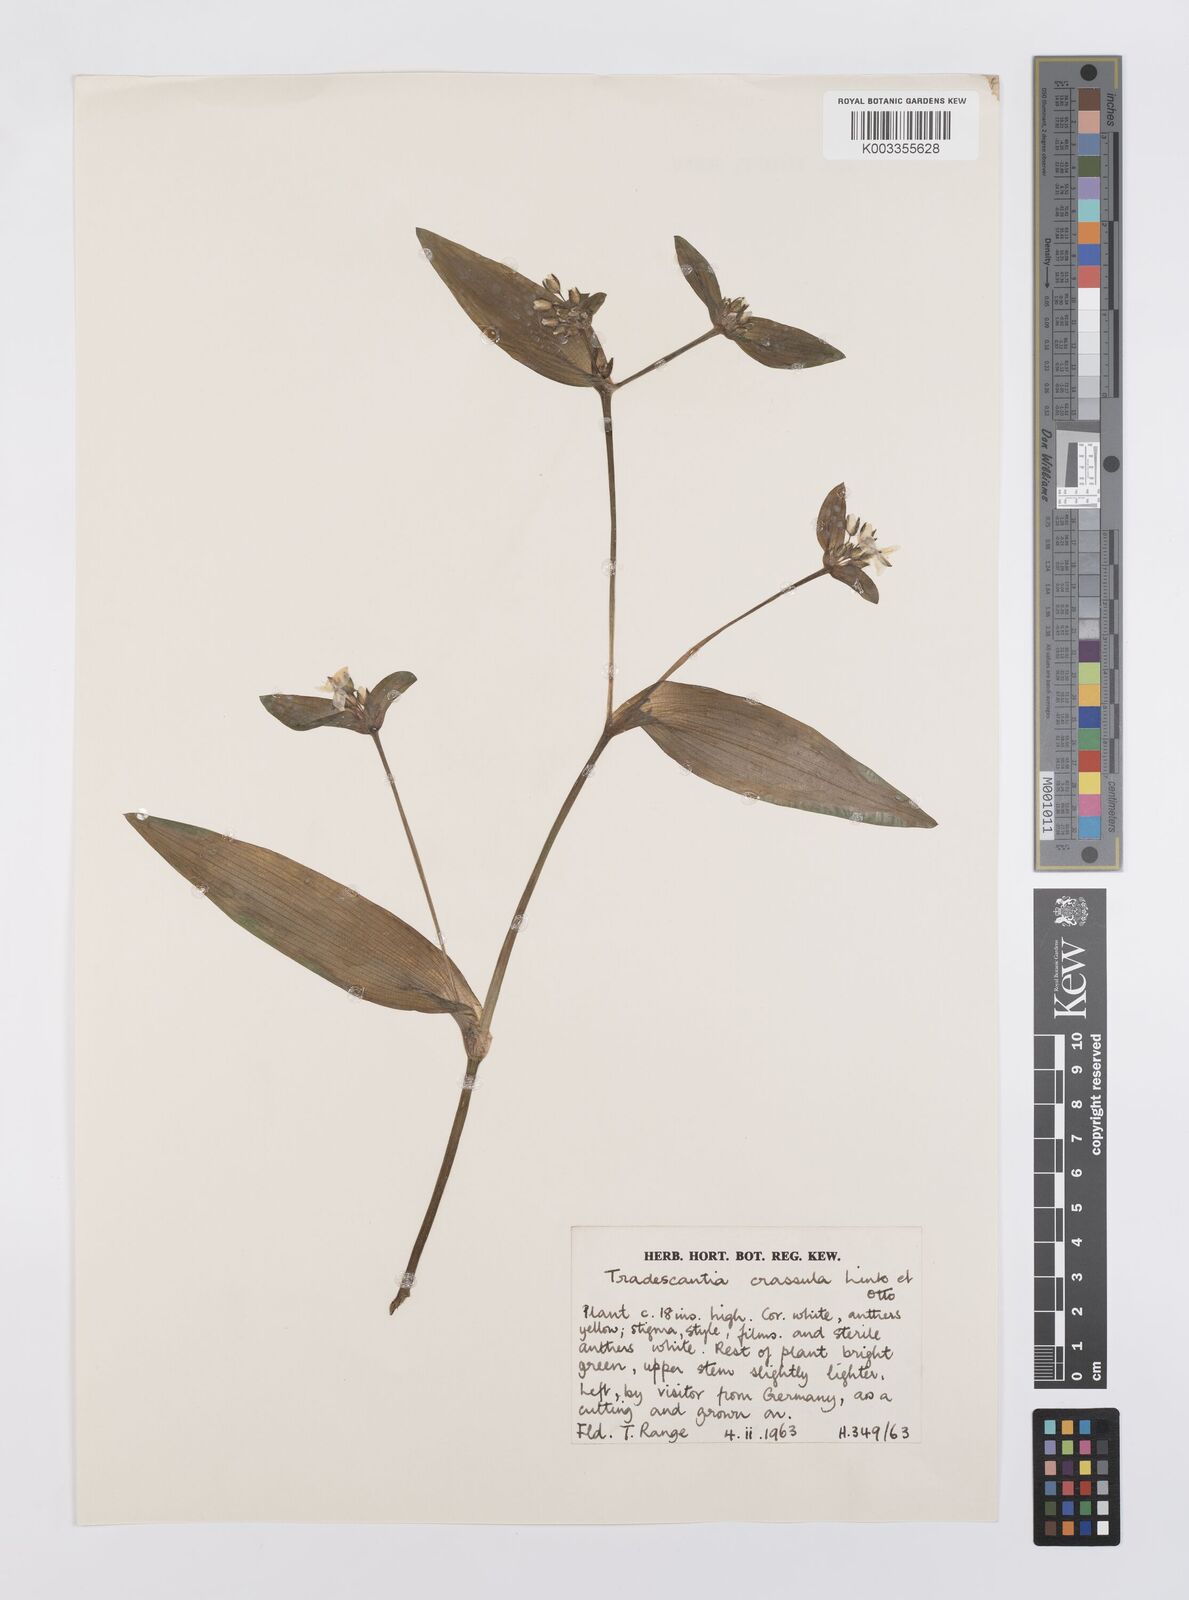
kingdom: Plantae
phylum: Tracheophyta
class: Liliopsida
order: Commelinales
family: Commelinaceae
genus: Tradescantia
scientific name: Tradescantia crassula
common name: Succulent spiderwort
